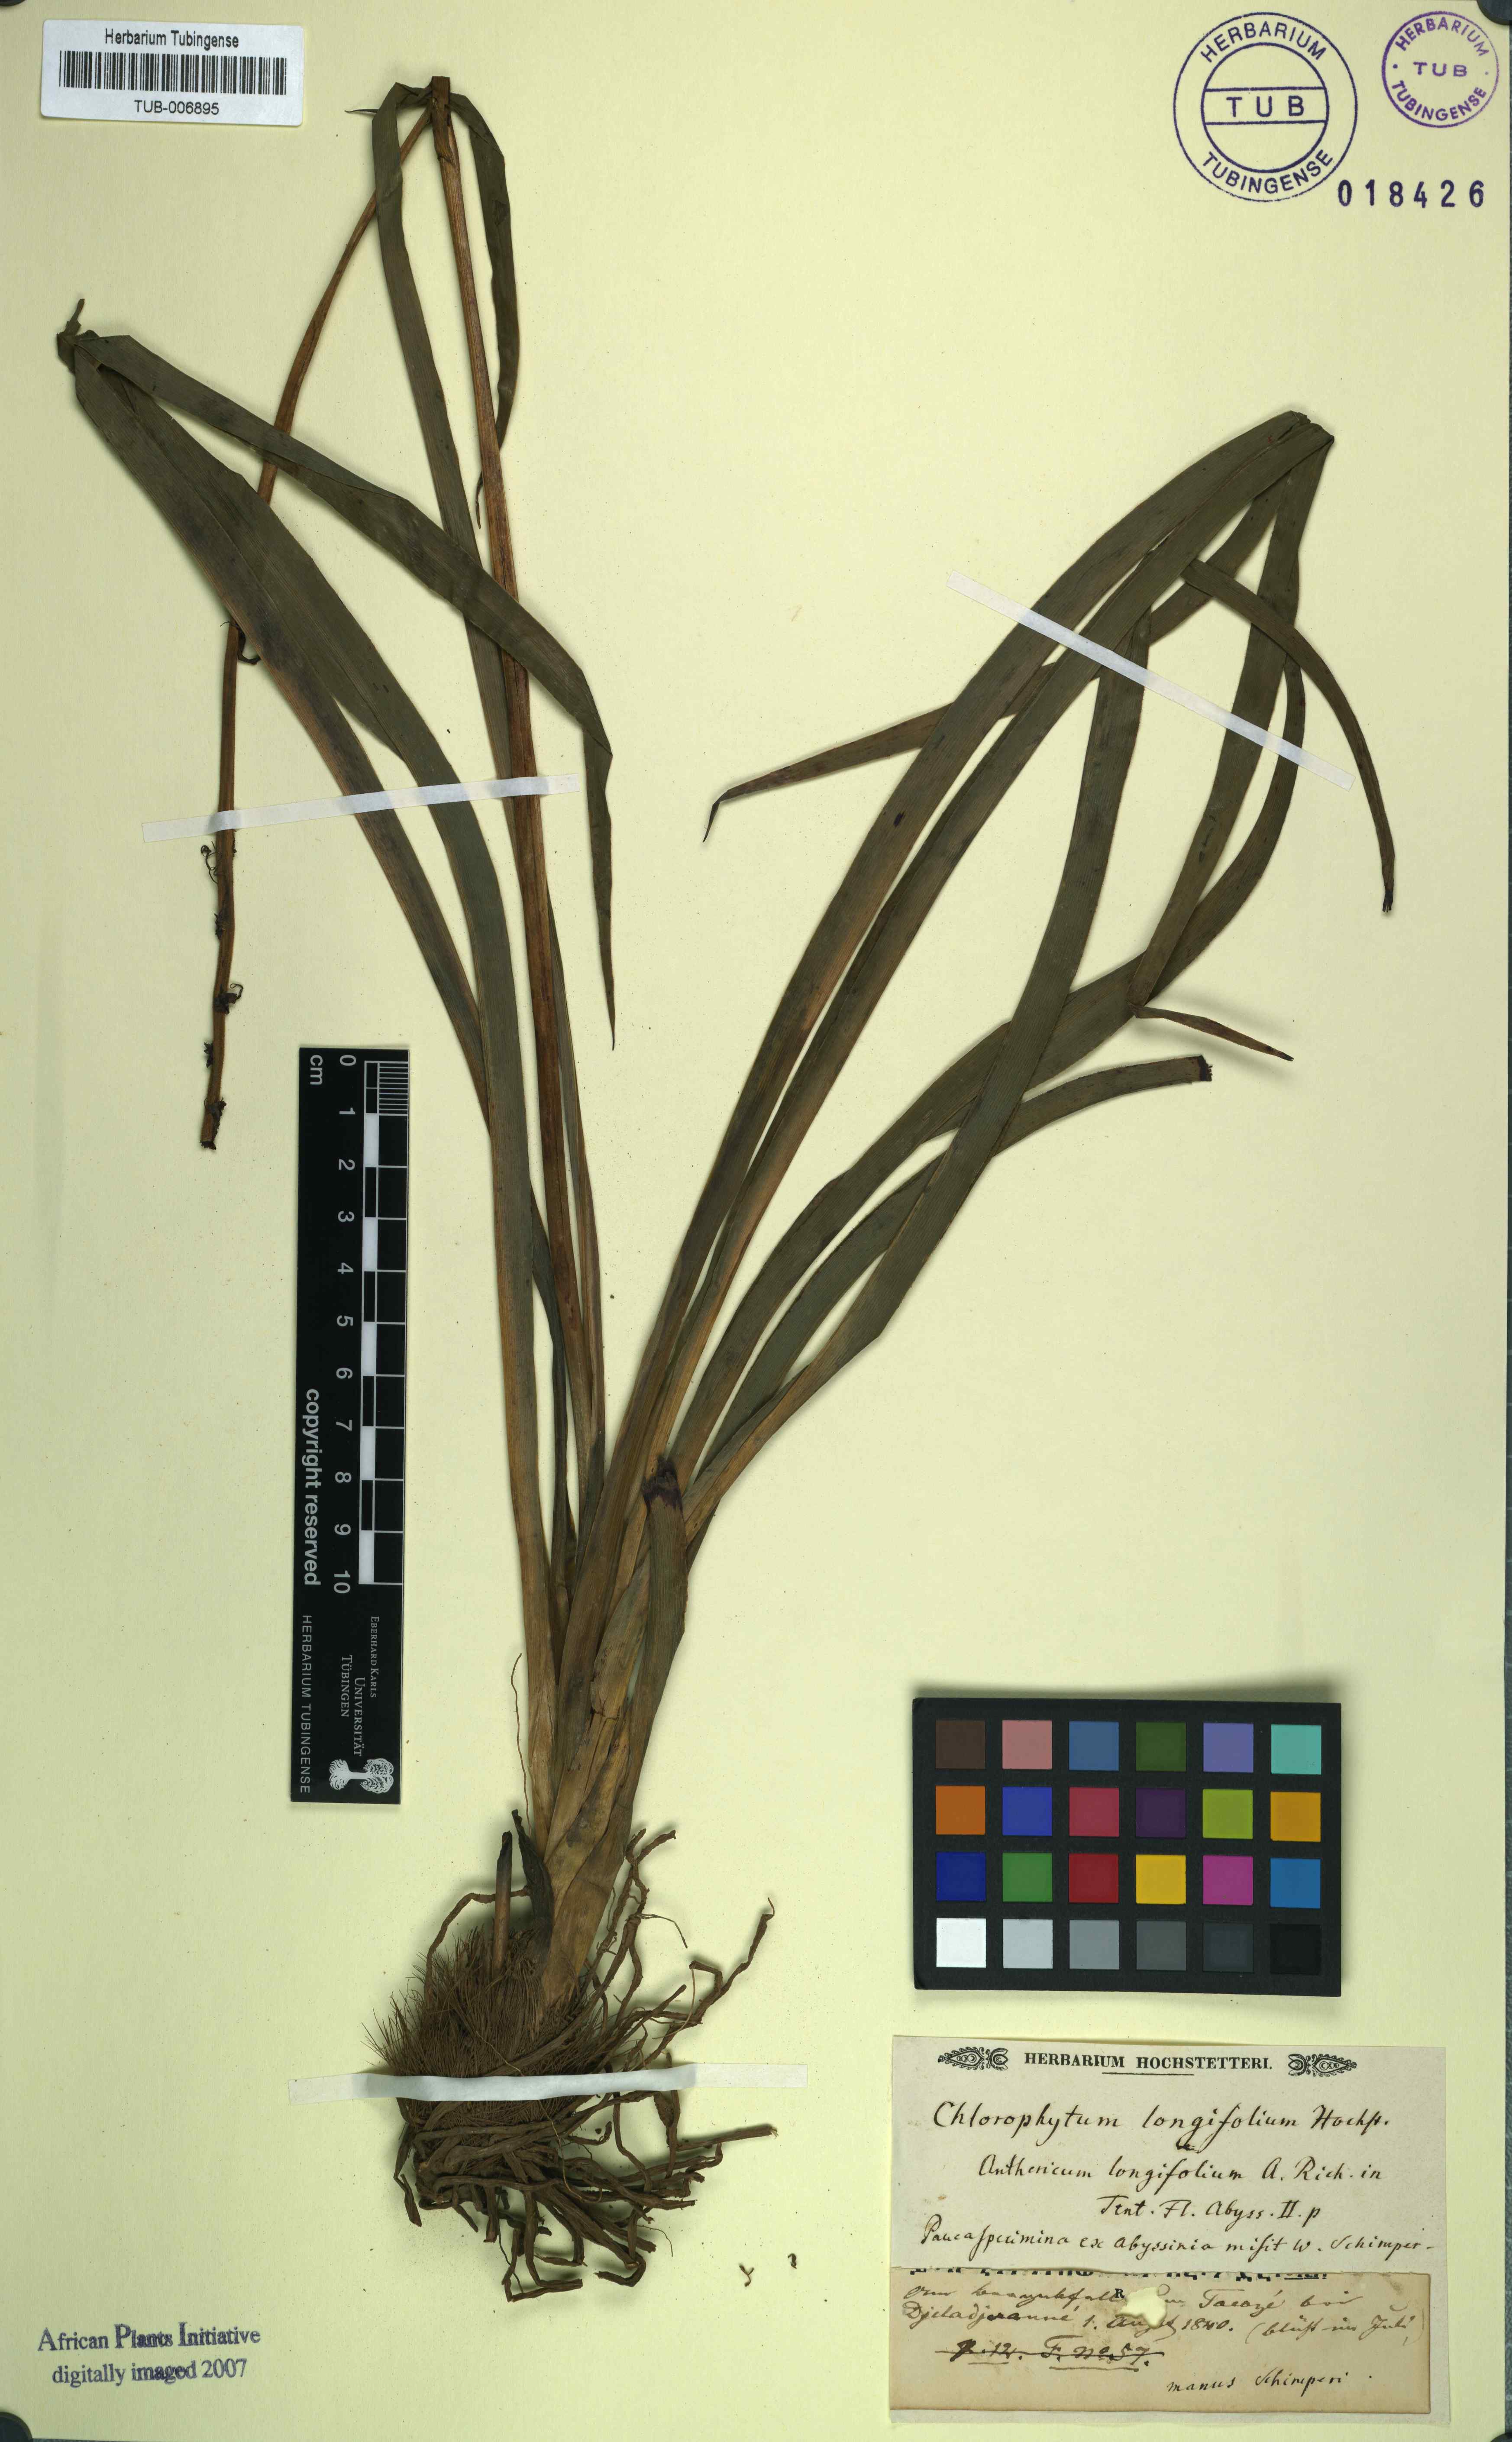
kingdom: Plantae
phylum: Tracheophyta
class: Liliopsida
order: Asparagales
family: Asparagaceae
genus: Chlorophytum
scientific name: Chlorophytum longifolium
